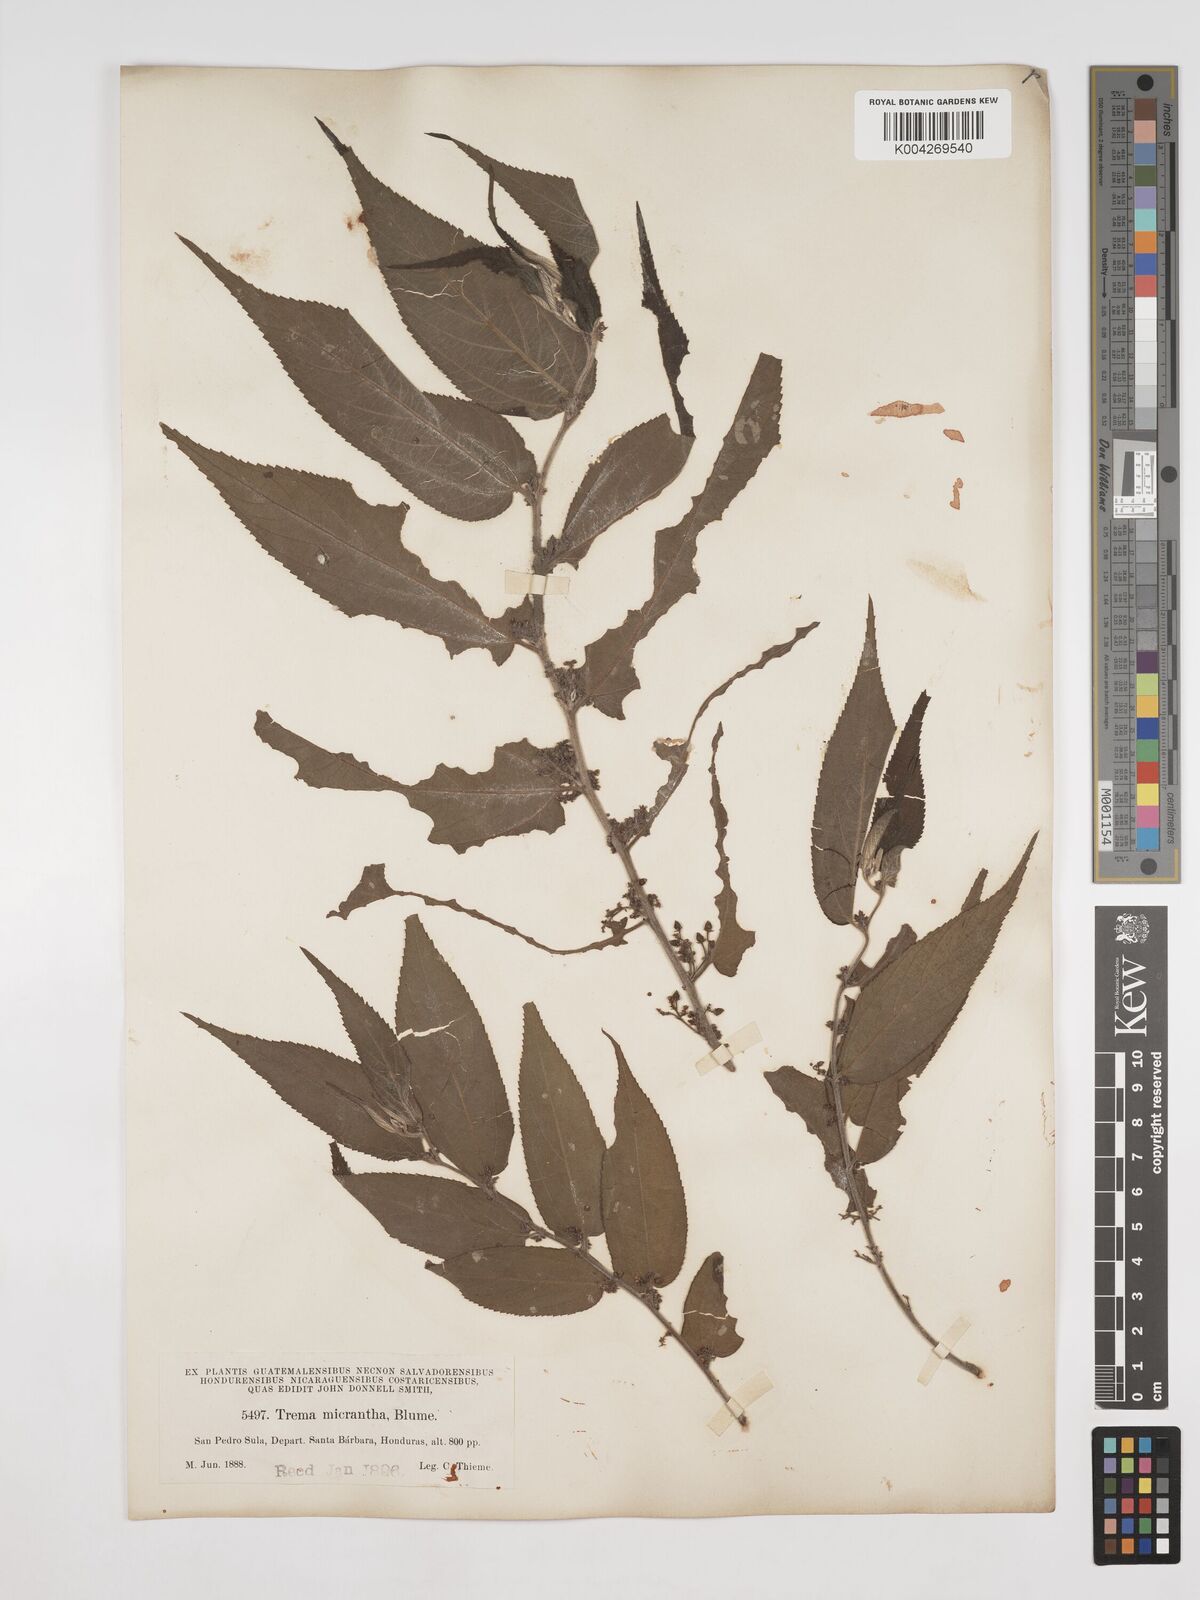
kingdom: Plantae
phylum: Tracheophyta
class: Magnoliopsida
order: Rosales
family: Cannabaceae
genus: Trema
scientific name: Trema micranthum
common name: Jamaican nettletree
